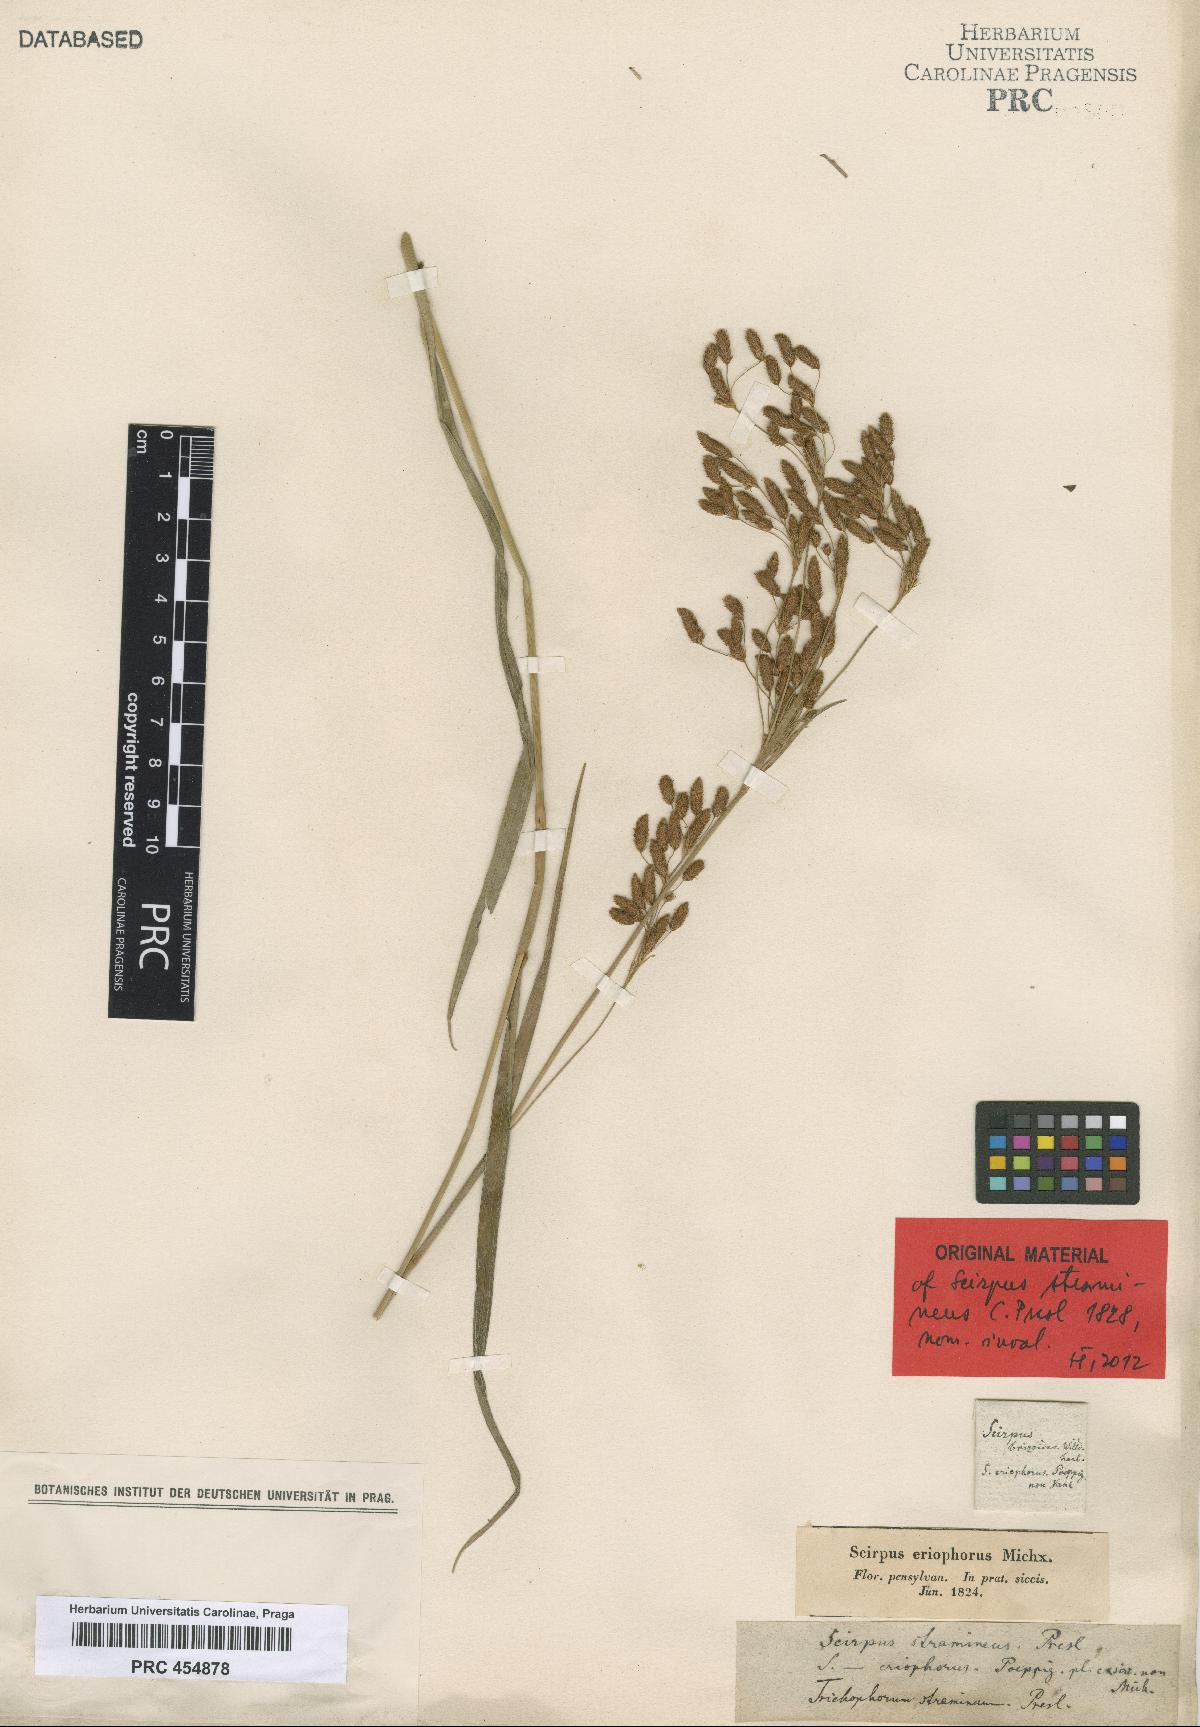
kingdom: Plantae
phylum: Tracheophyta
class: Liliopsida
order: Poales
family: Cyperaceae
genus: Scirpus
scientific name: Scirpus stramineus
